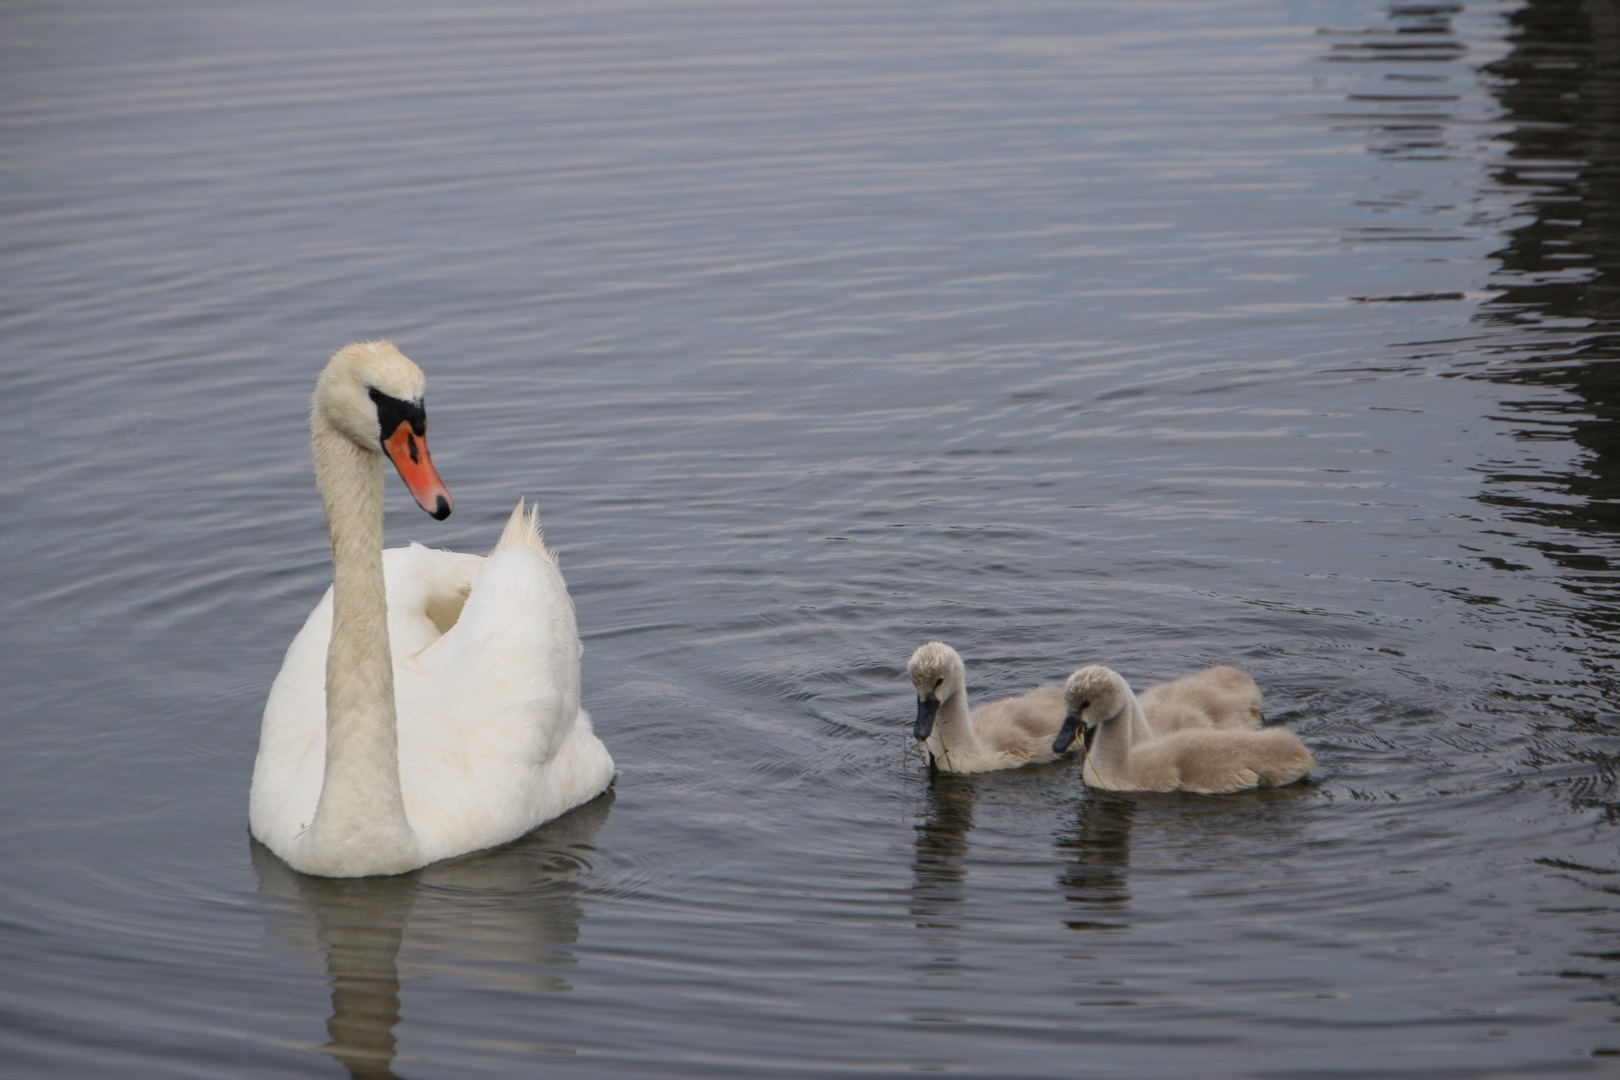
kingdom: Animalia
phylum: Chordata
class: Aves
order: Anseriformes
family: Anatidae
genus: Cygnus
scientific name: Cygnus olor
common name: Knopsvane
